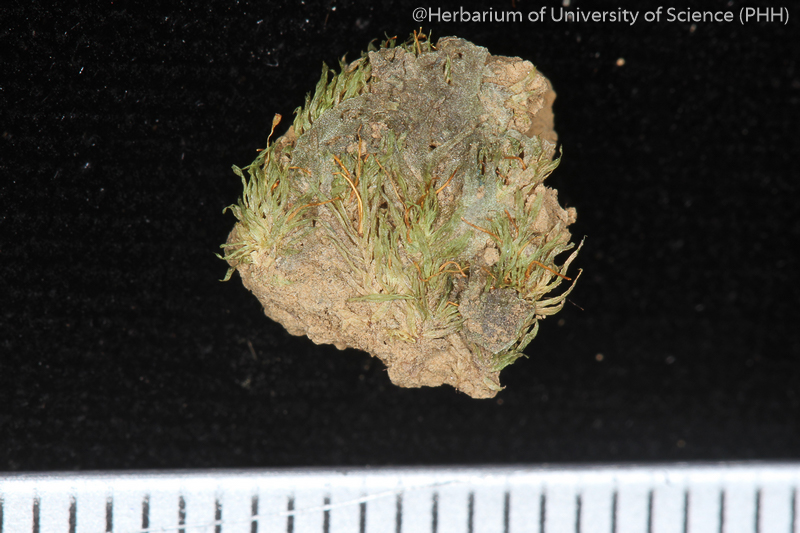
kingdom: Plantae
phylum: Bryophyta
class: Bryopsida
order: Dicranales
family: Fissidentaceae
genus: Fissidens
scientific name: Fissidens zollingeri
